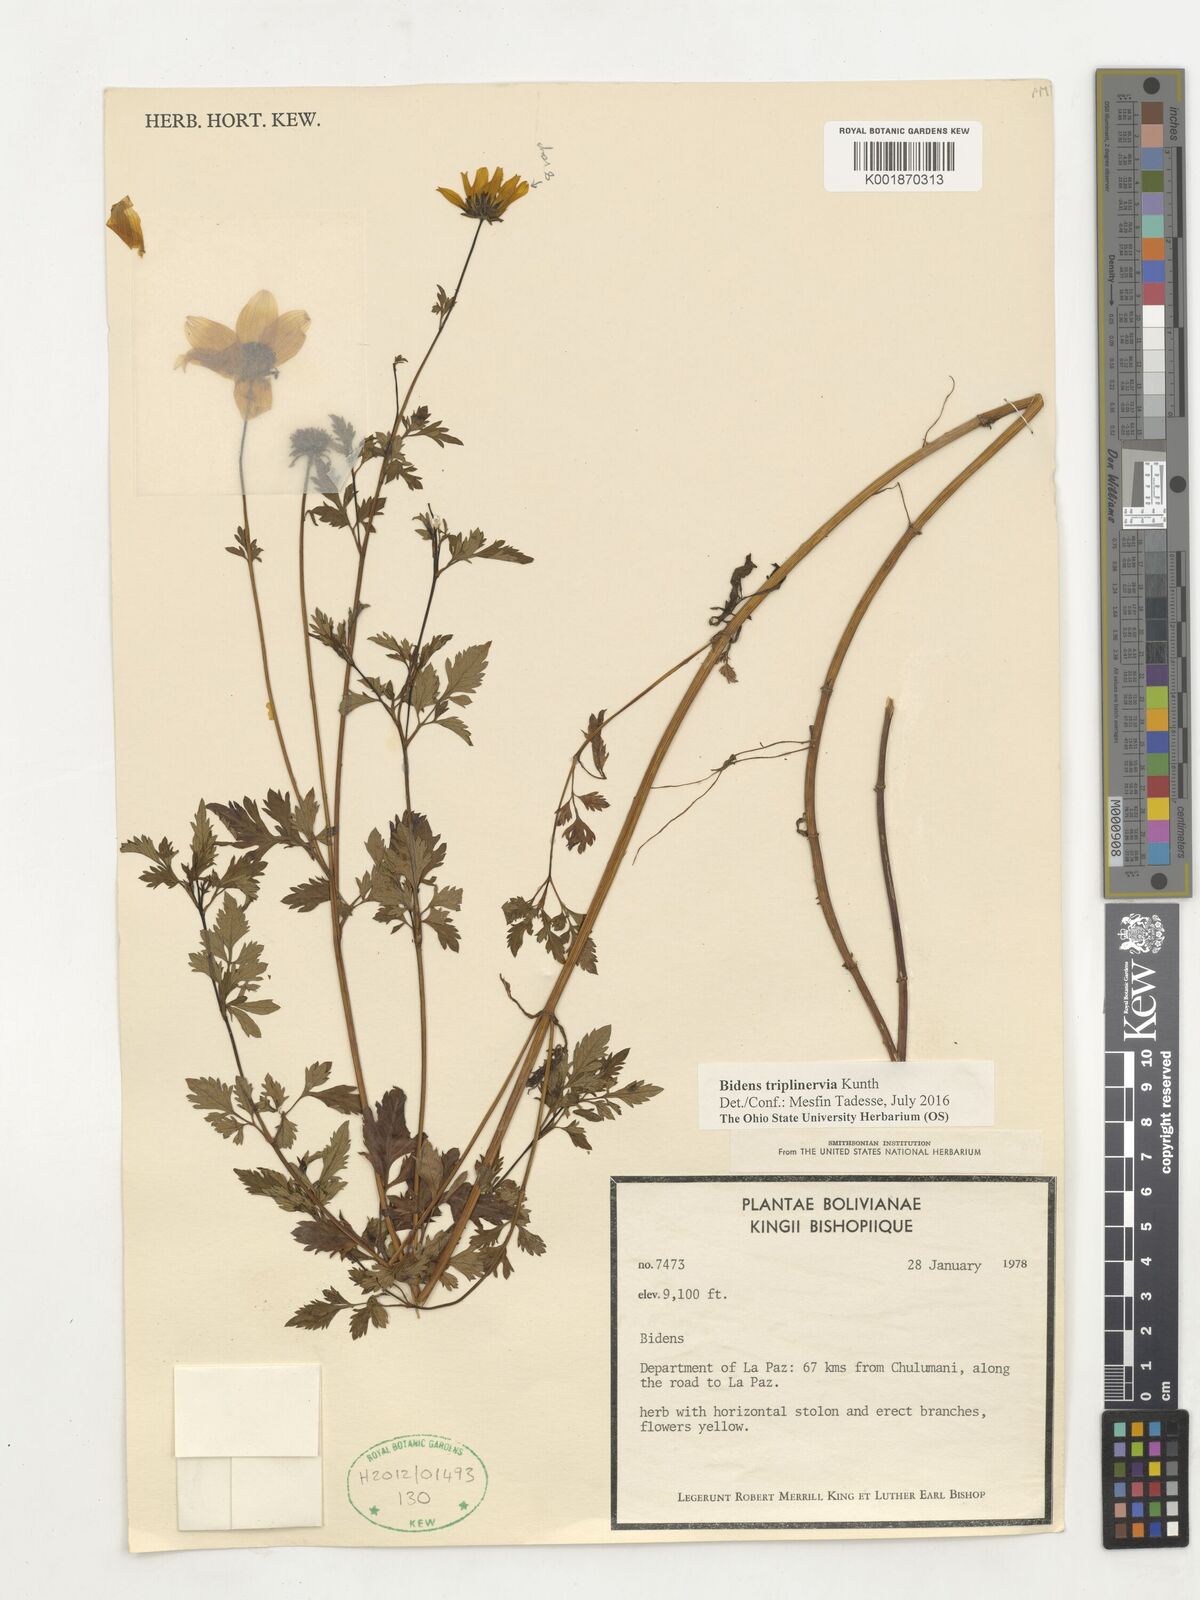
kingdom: Plantae
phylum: Tracheophyta
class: Magnoliopsida
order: Asterales
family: Asteraceae
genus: Bidens
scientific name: Bidens triplinervia
